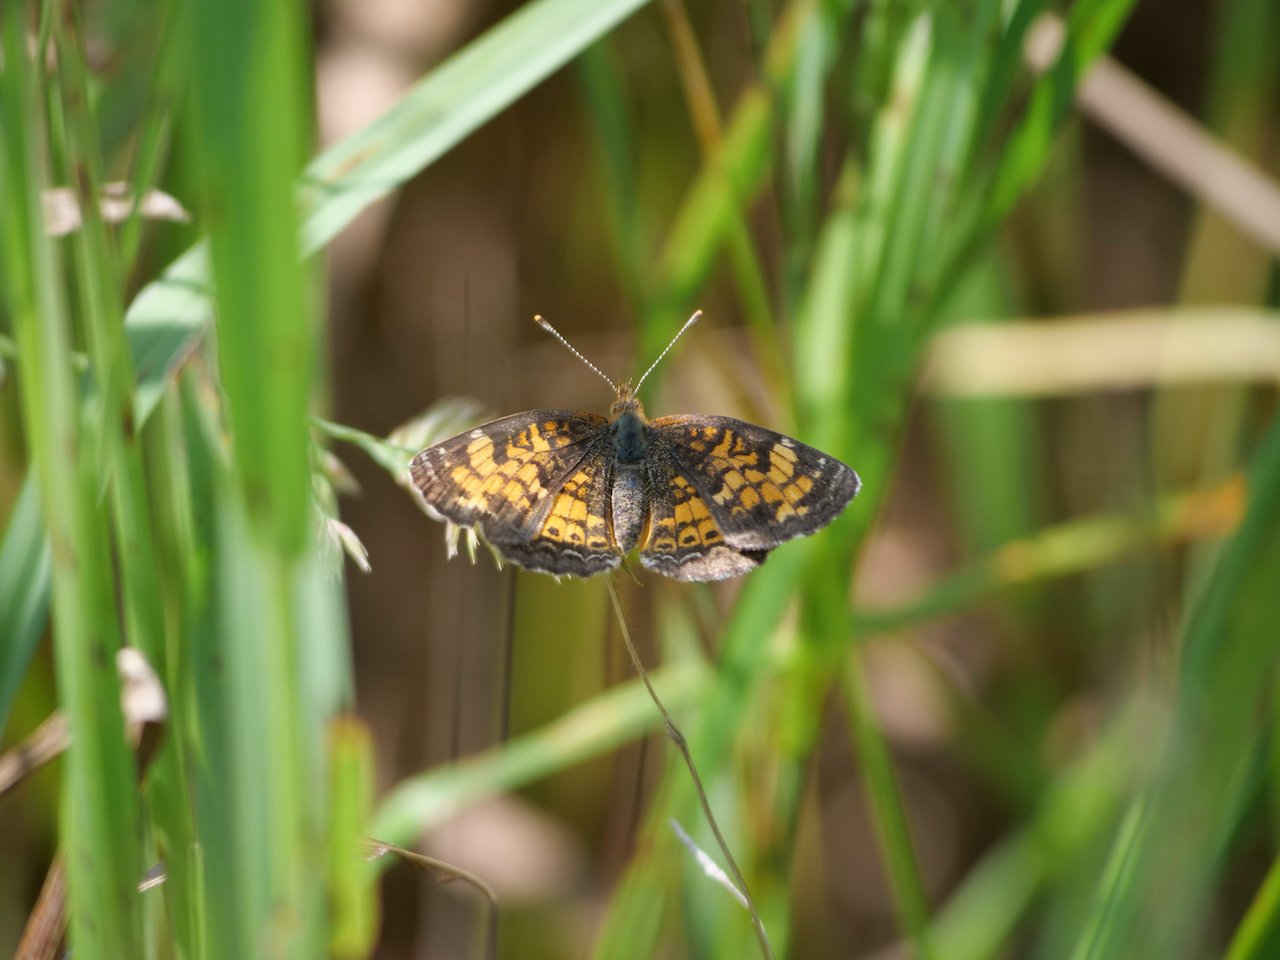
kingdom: Animalia
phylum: Arthropoda
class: Insecta
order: Lepidoptera
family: Nymphalidae
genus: Phyciodes
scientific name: Phyciodes tharos
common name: Northern Crescent
